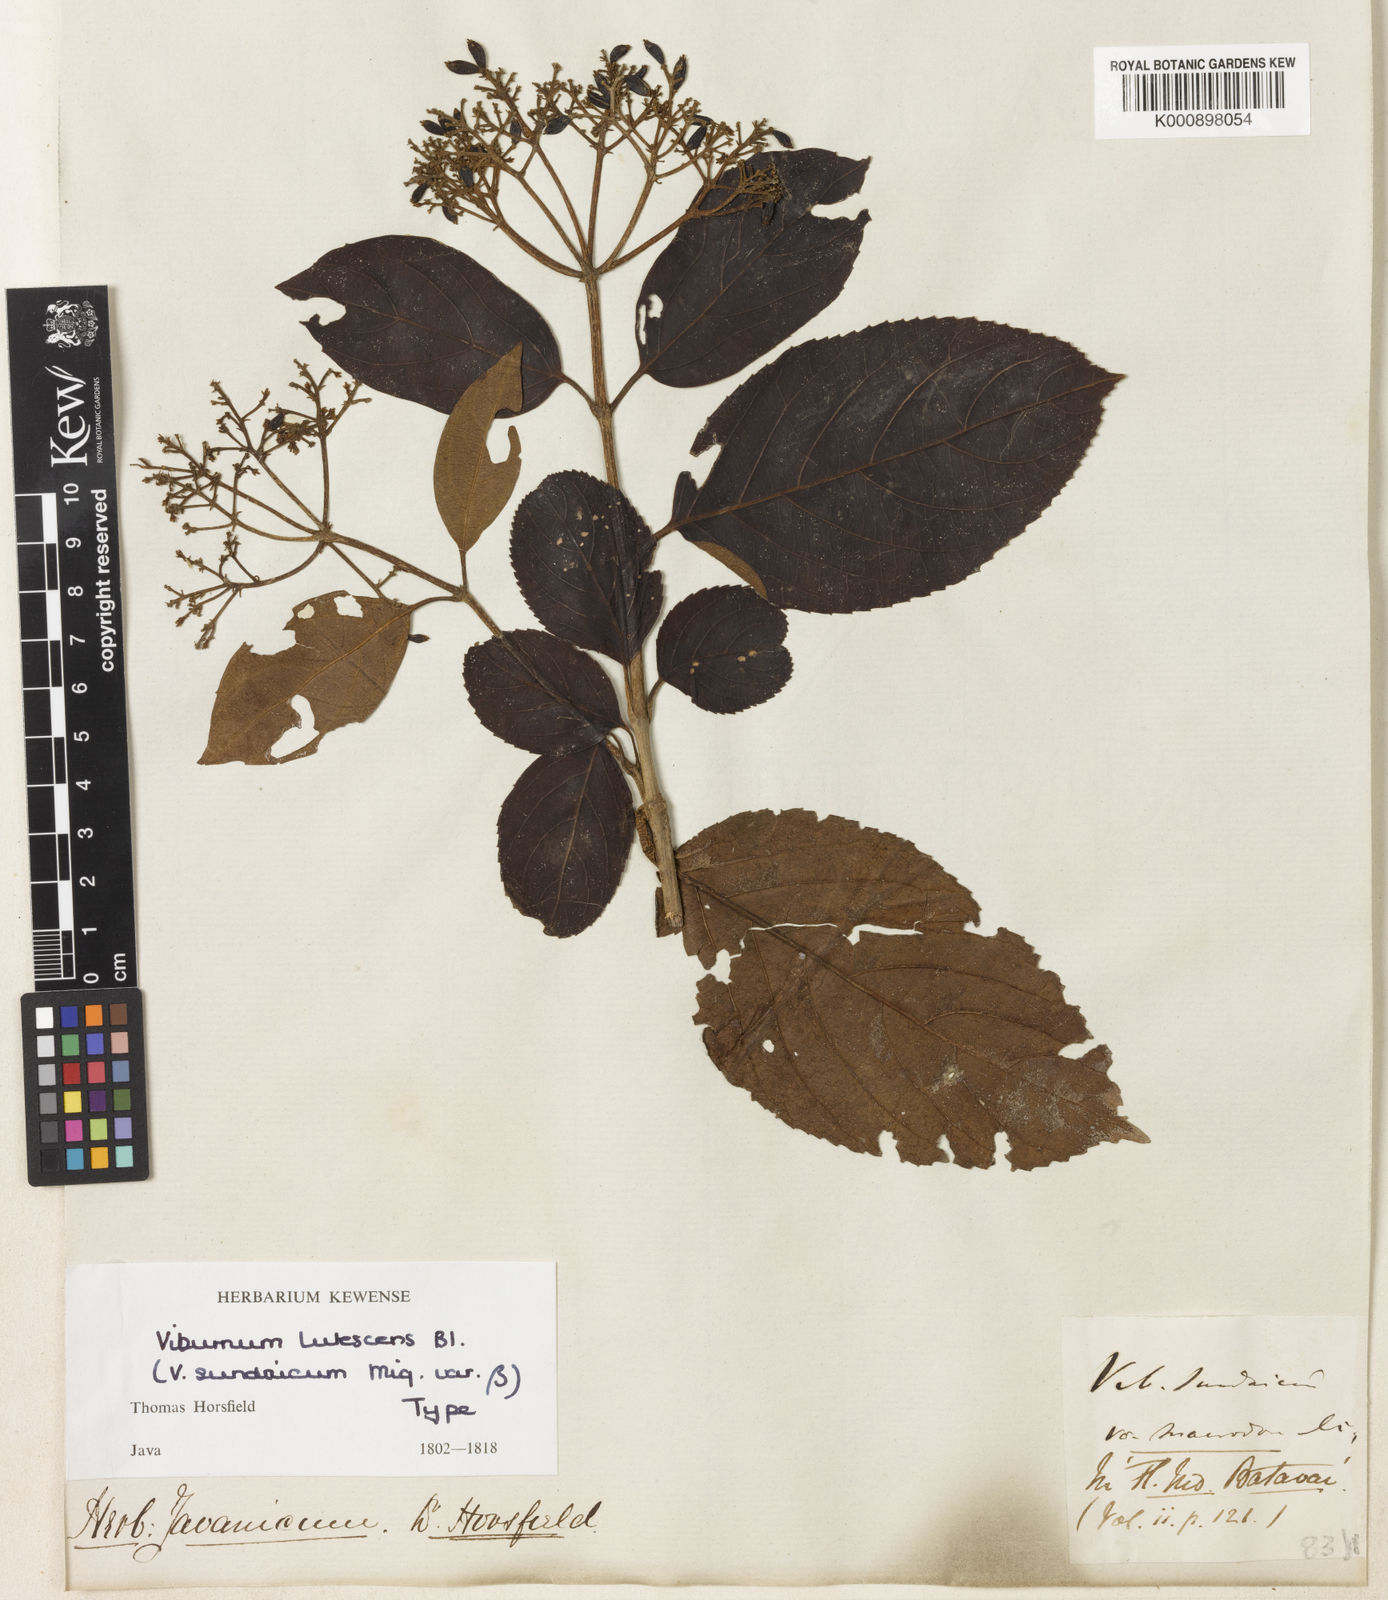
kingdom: Plantae
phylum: Tracheophyta
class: Magnoliopsida
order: Dipsacales
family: Viburnaceae
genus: Viburnum
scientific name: Viburnum lutescens
